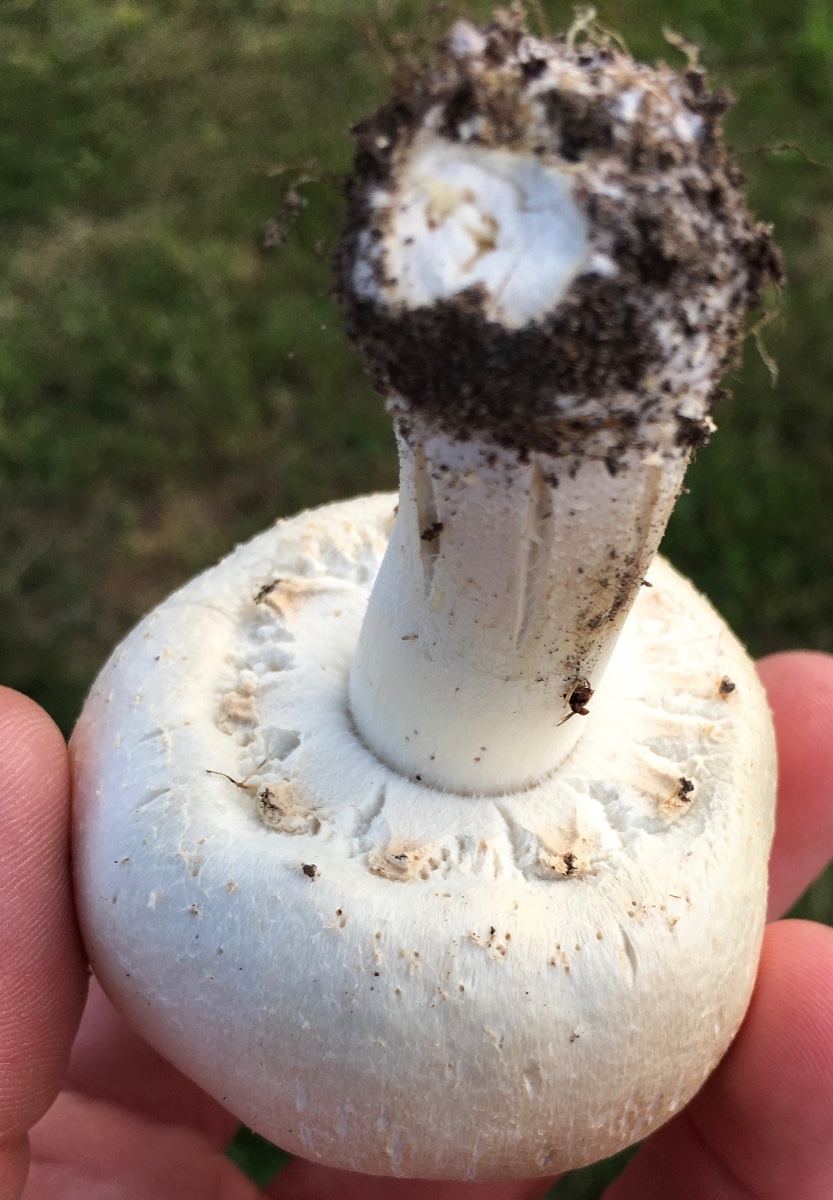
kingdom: Fungi
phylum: Basidiomycota
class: Agaricomycetes
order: Agaricales
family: Agaricaceae
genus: Agaricus
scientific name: Agaricus arvensis
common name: ager-champignon
